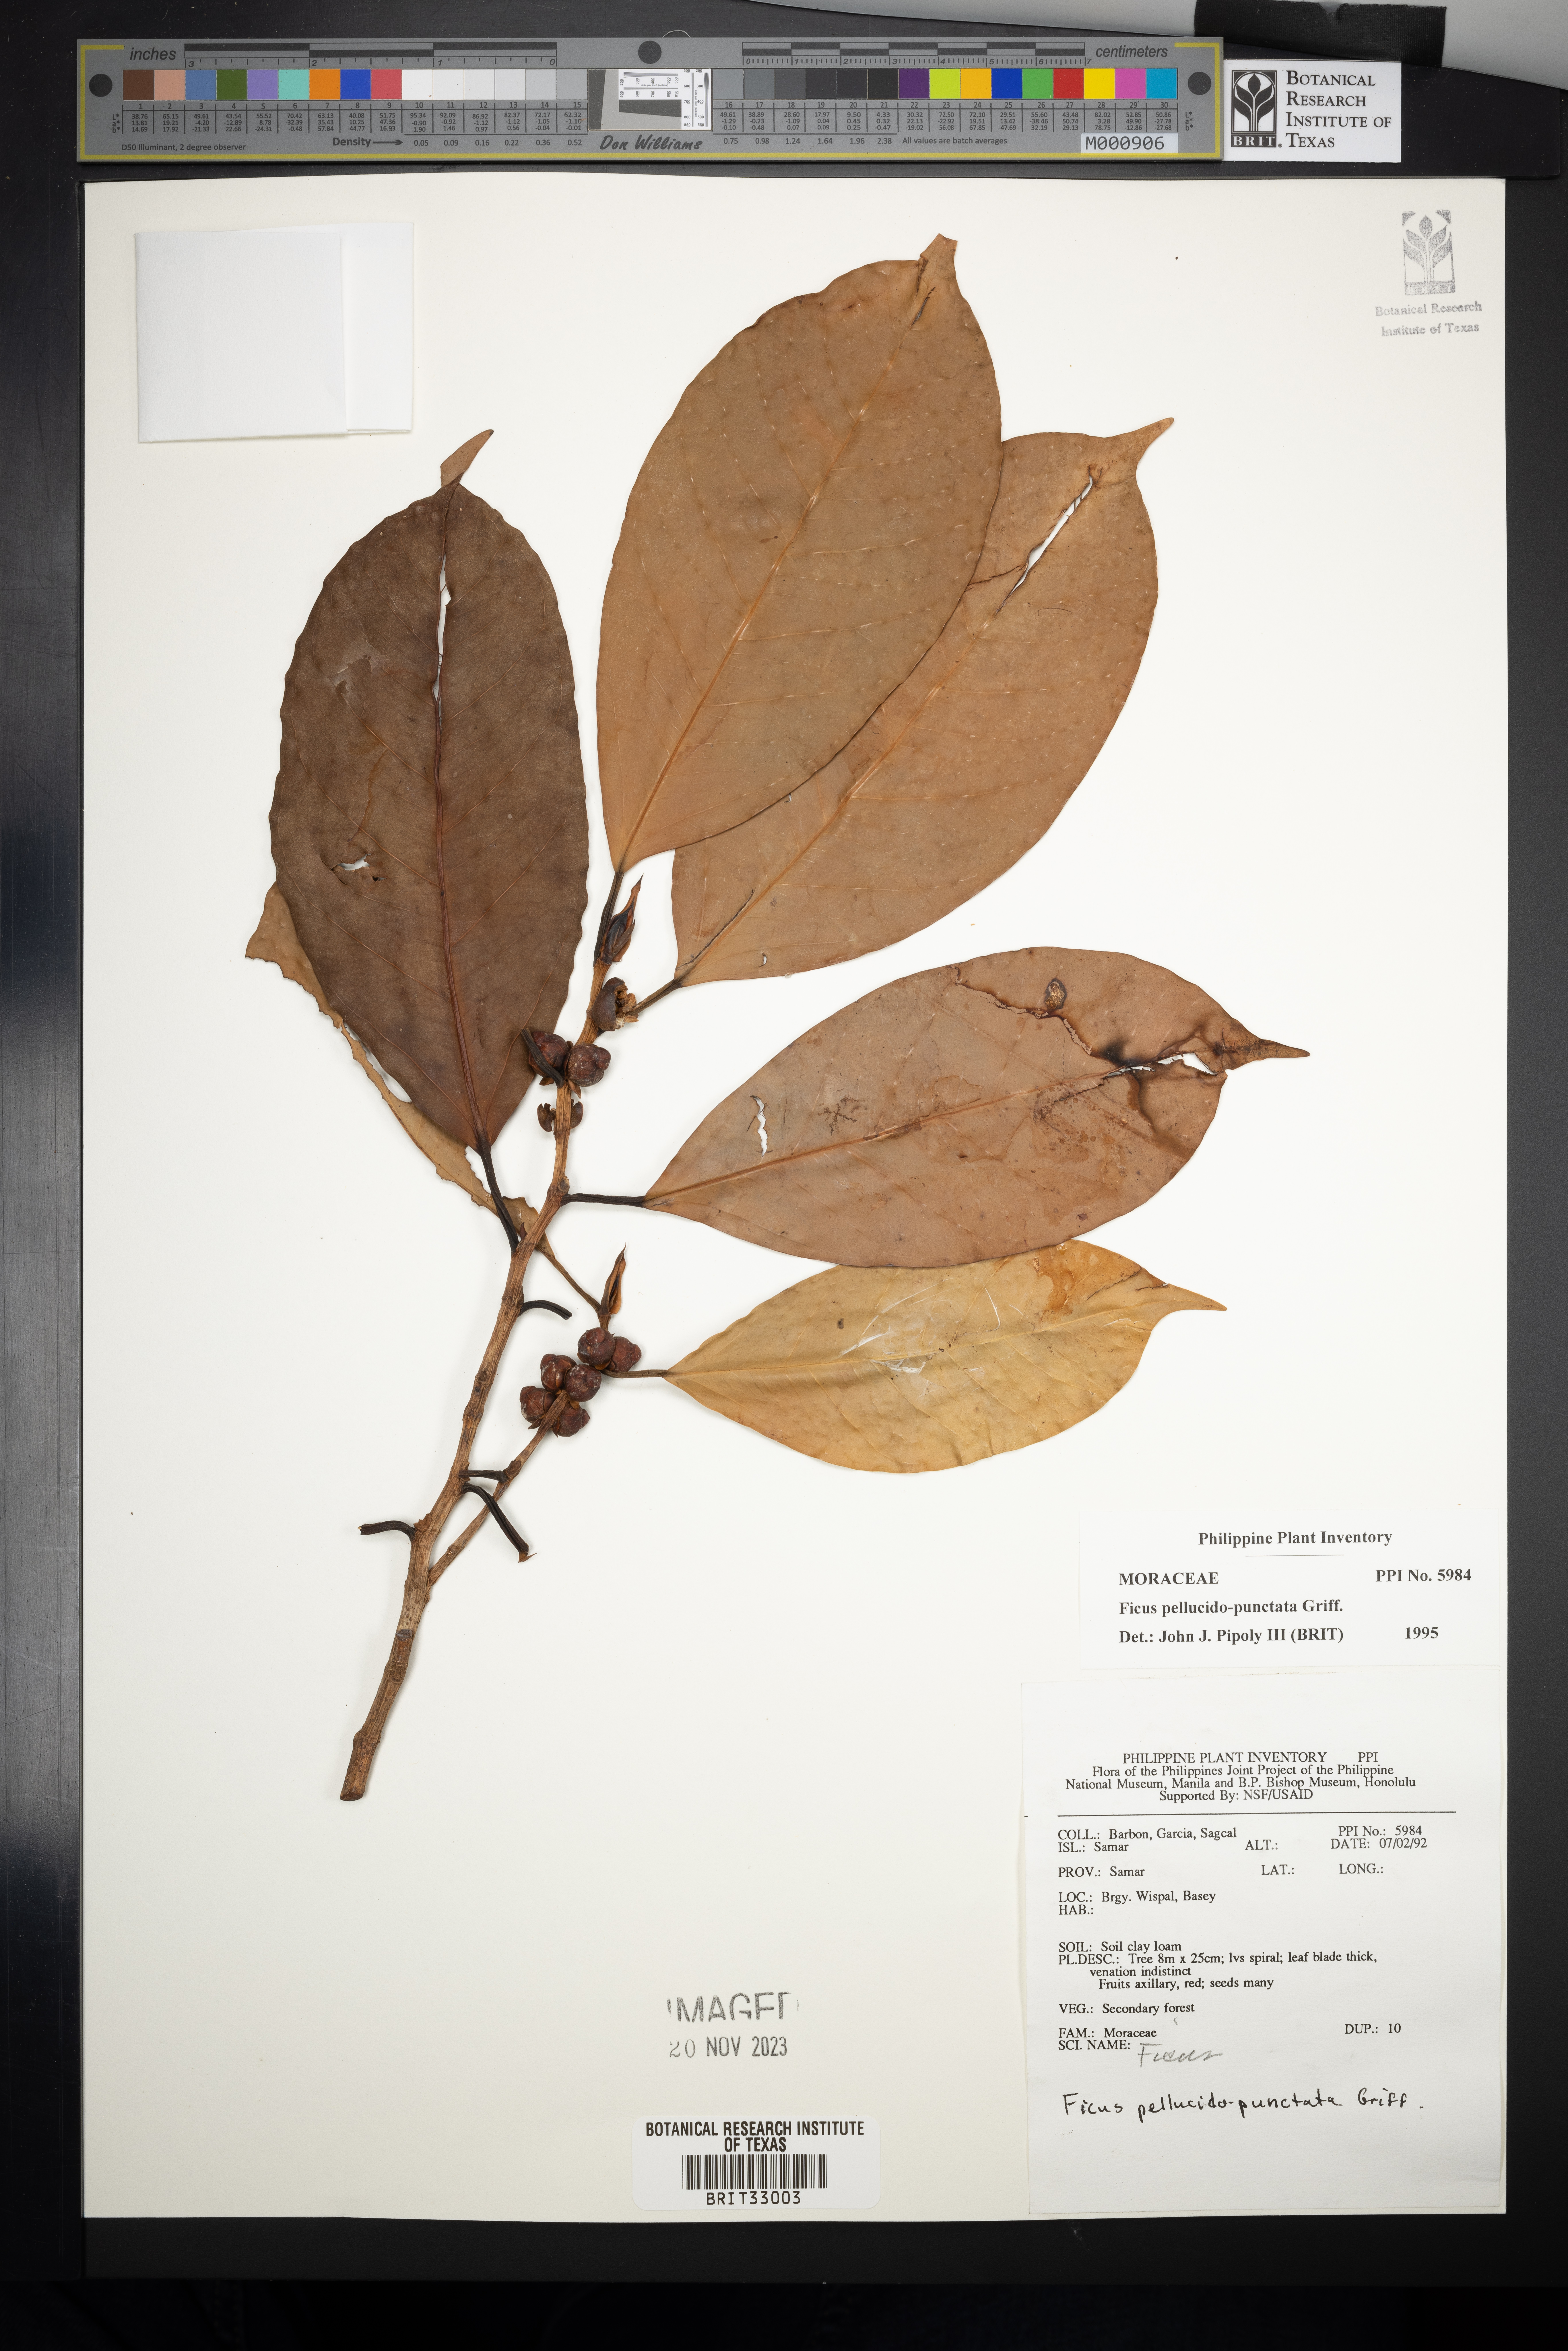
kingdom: Plantae
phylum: Tracheophyta
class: Magnoliopsida
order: Rosales
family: Moraceae
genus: Ficus
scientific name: Ficus pellucidopunctata
